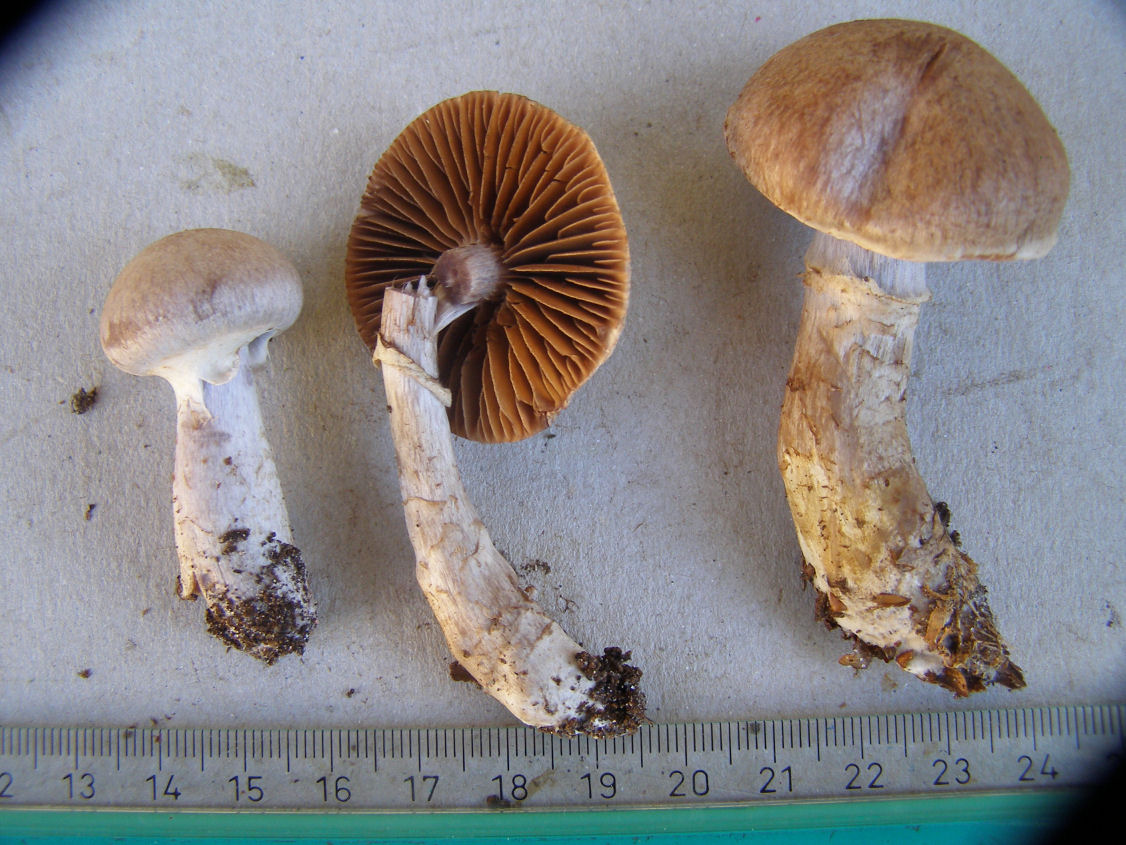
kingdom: Fungi
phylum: Basidiomycota
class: Agaricomycetes
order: Agaricales
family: Cortinariaceae
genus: Cortinarius
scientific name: Cortinarius torvus
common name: champignonagtig slørhat
